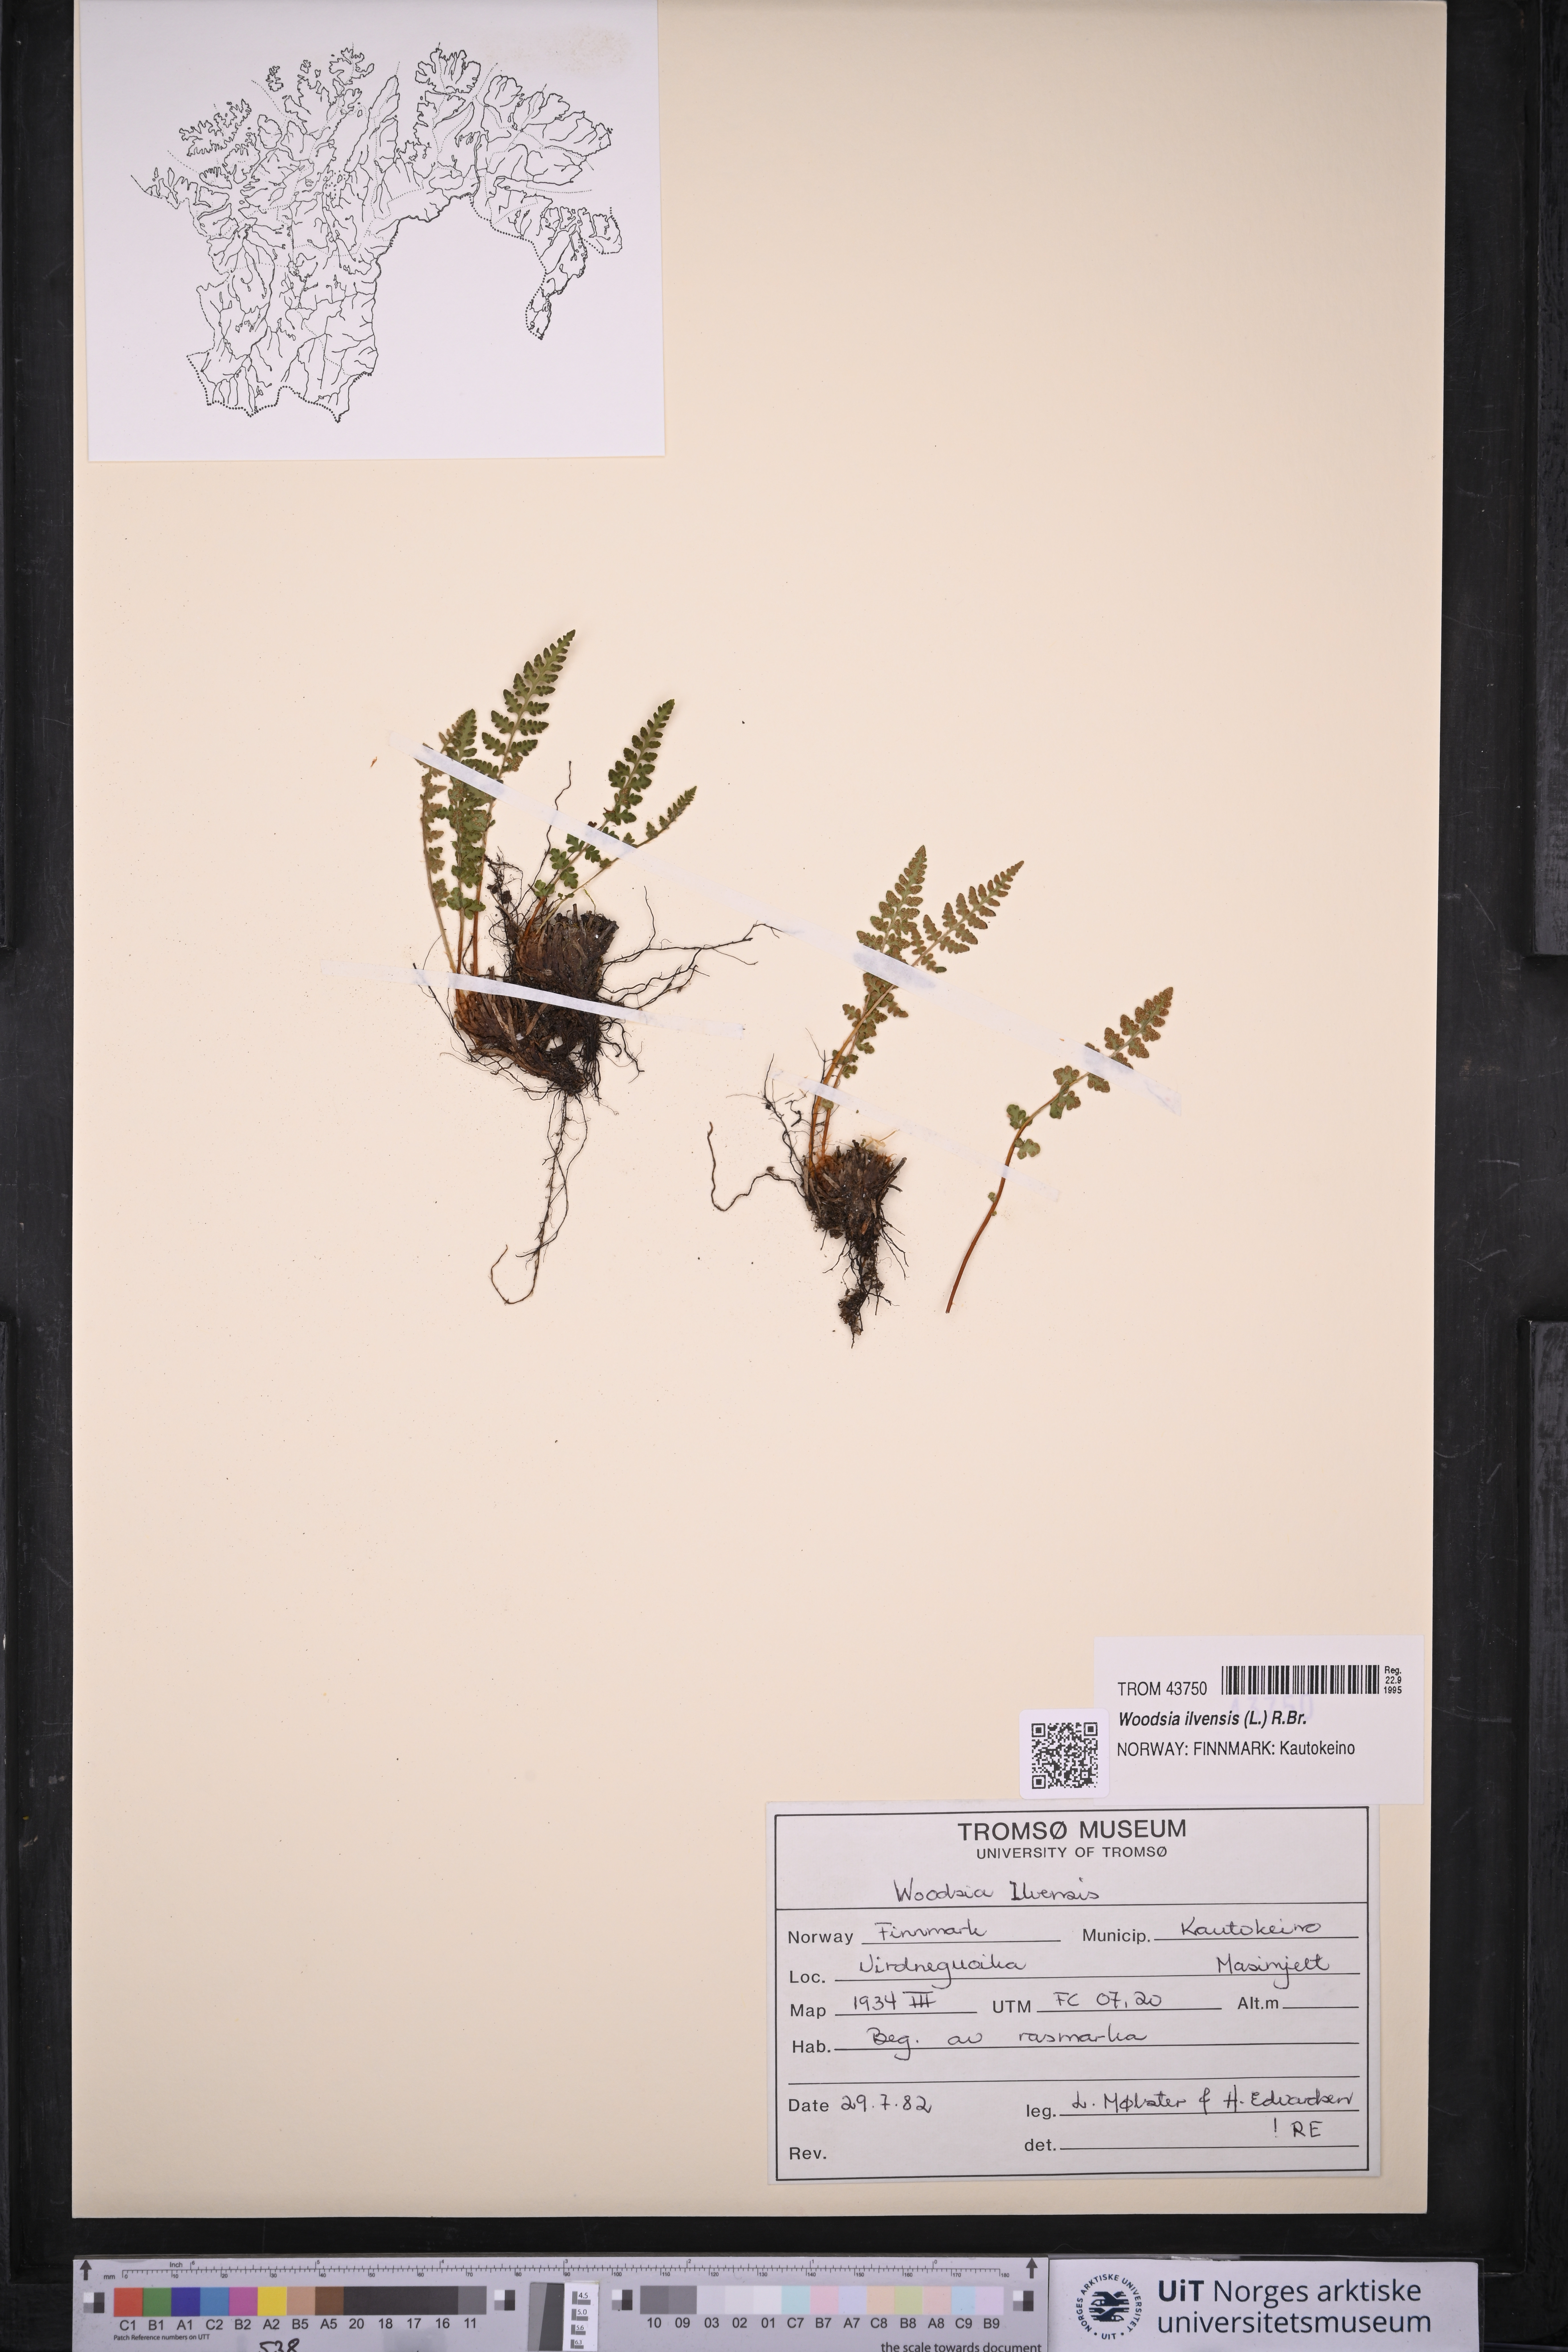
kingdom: Plantae
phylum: Tracheophyta
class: Polypodiopsida
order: Polypodiales
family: Woodsiaceae
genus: Woodsia
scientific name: Woodsia ilvensis
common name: Fragrant woodsia
